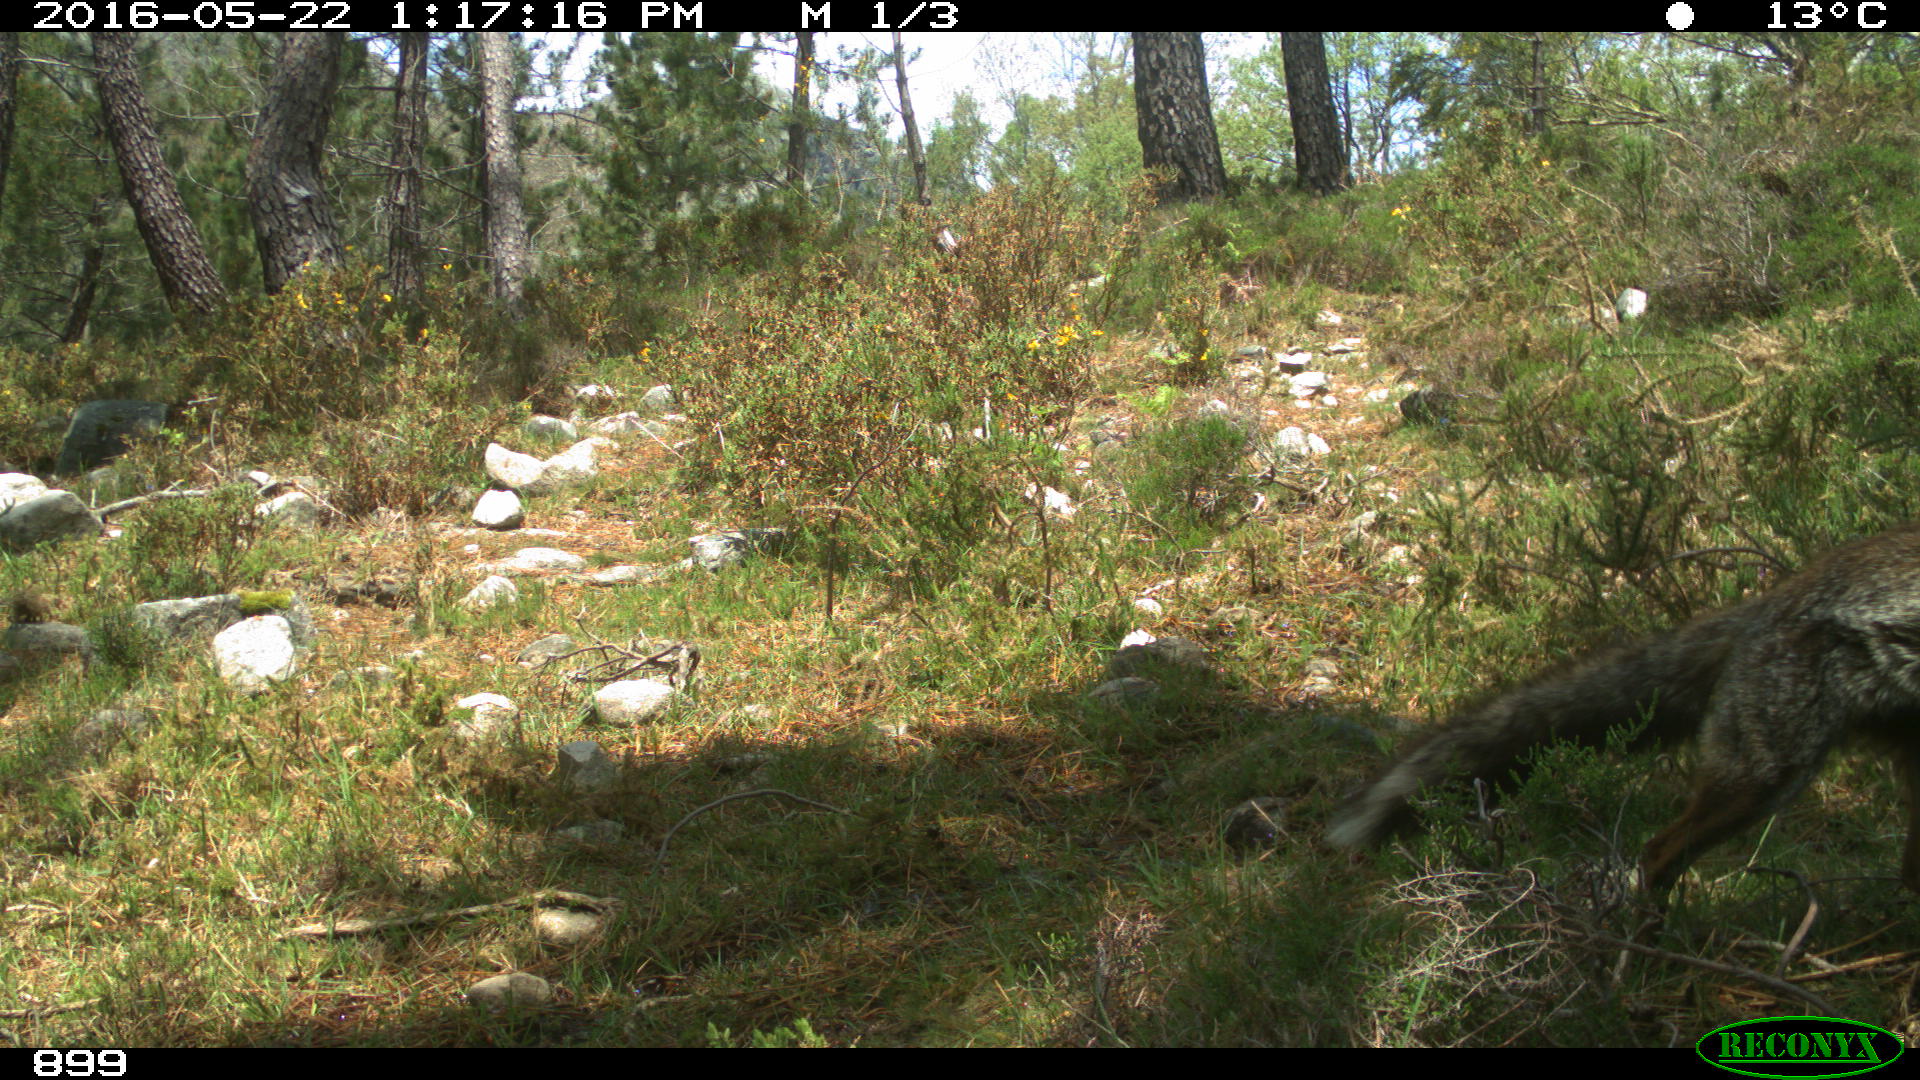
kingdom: Animalia
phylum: Chordata
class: Mammalia
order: Carnivora
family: Canidae
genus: Vulpes
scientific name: Vulpes vulpes
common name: Red fox
